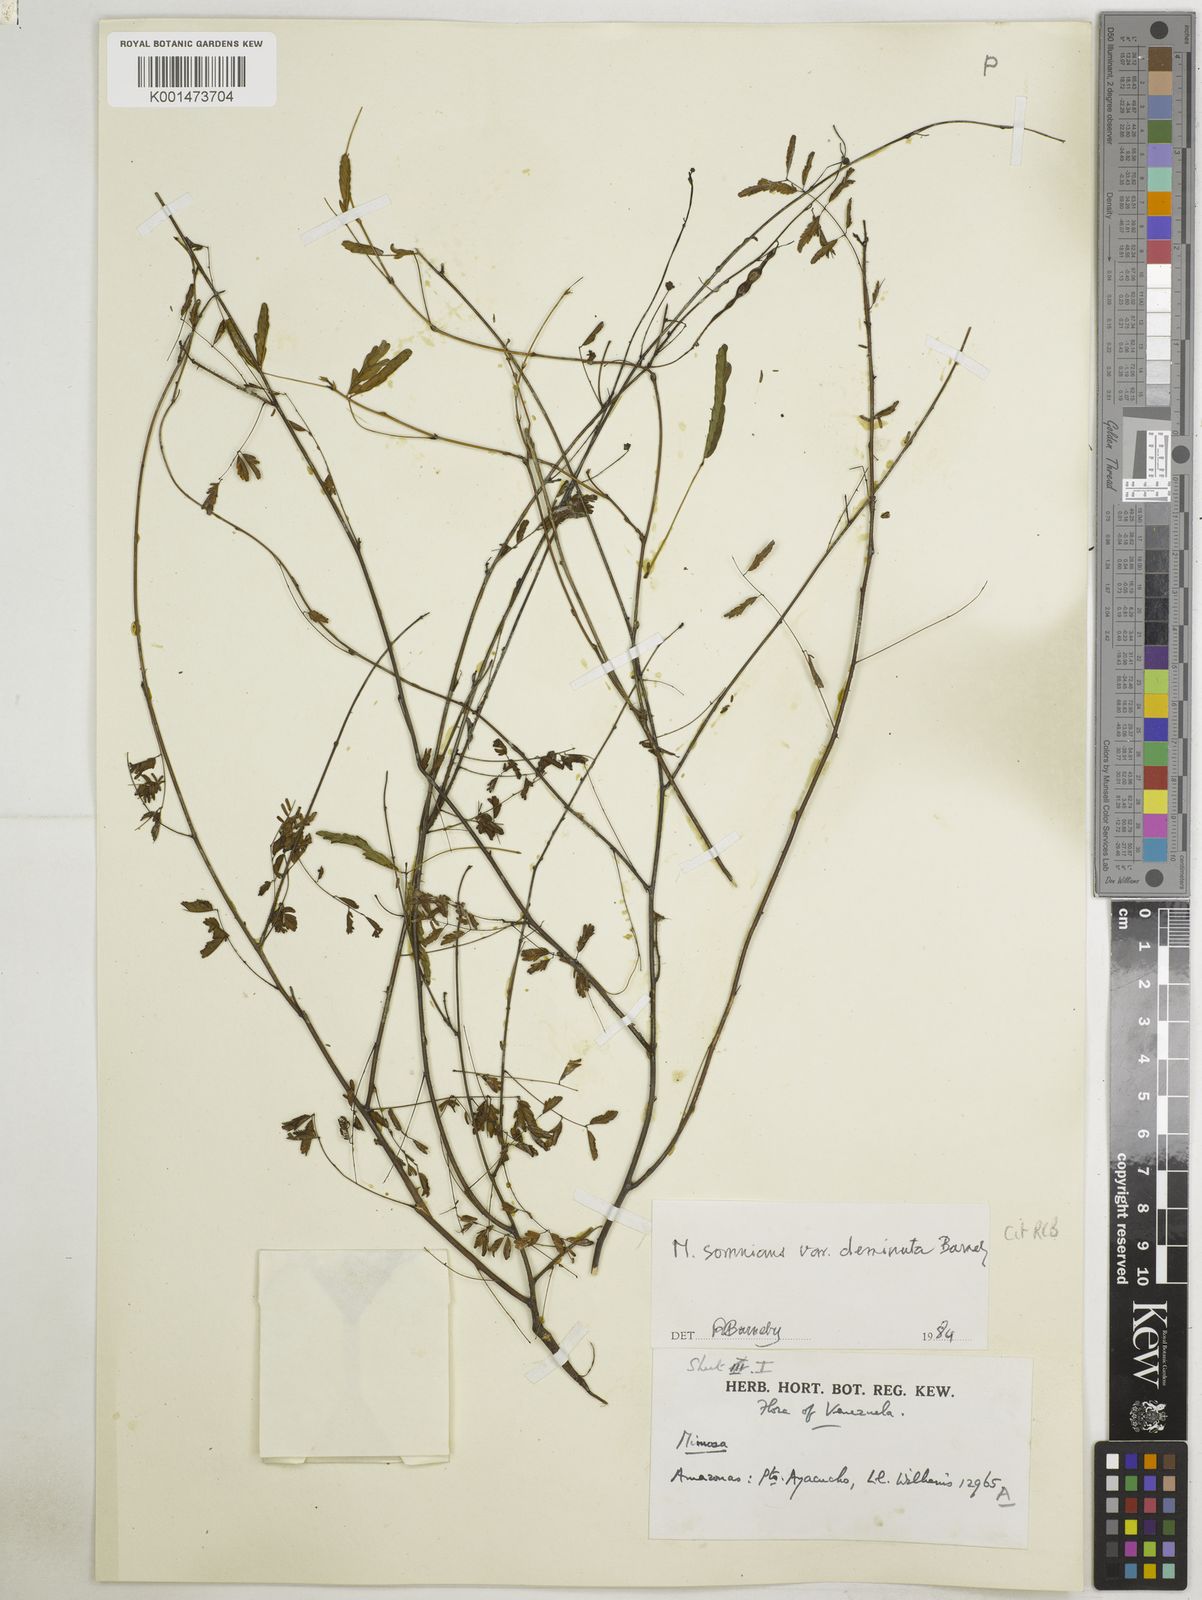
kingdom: Plantae
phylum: Tracheophyta
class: Magnoliopsida
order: Fabales
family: Fabaceae
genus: Mimosa
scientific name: Mimosa somnians
